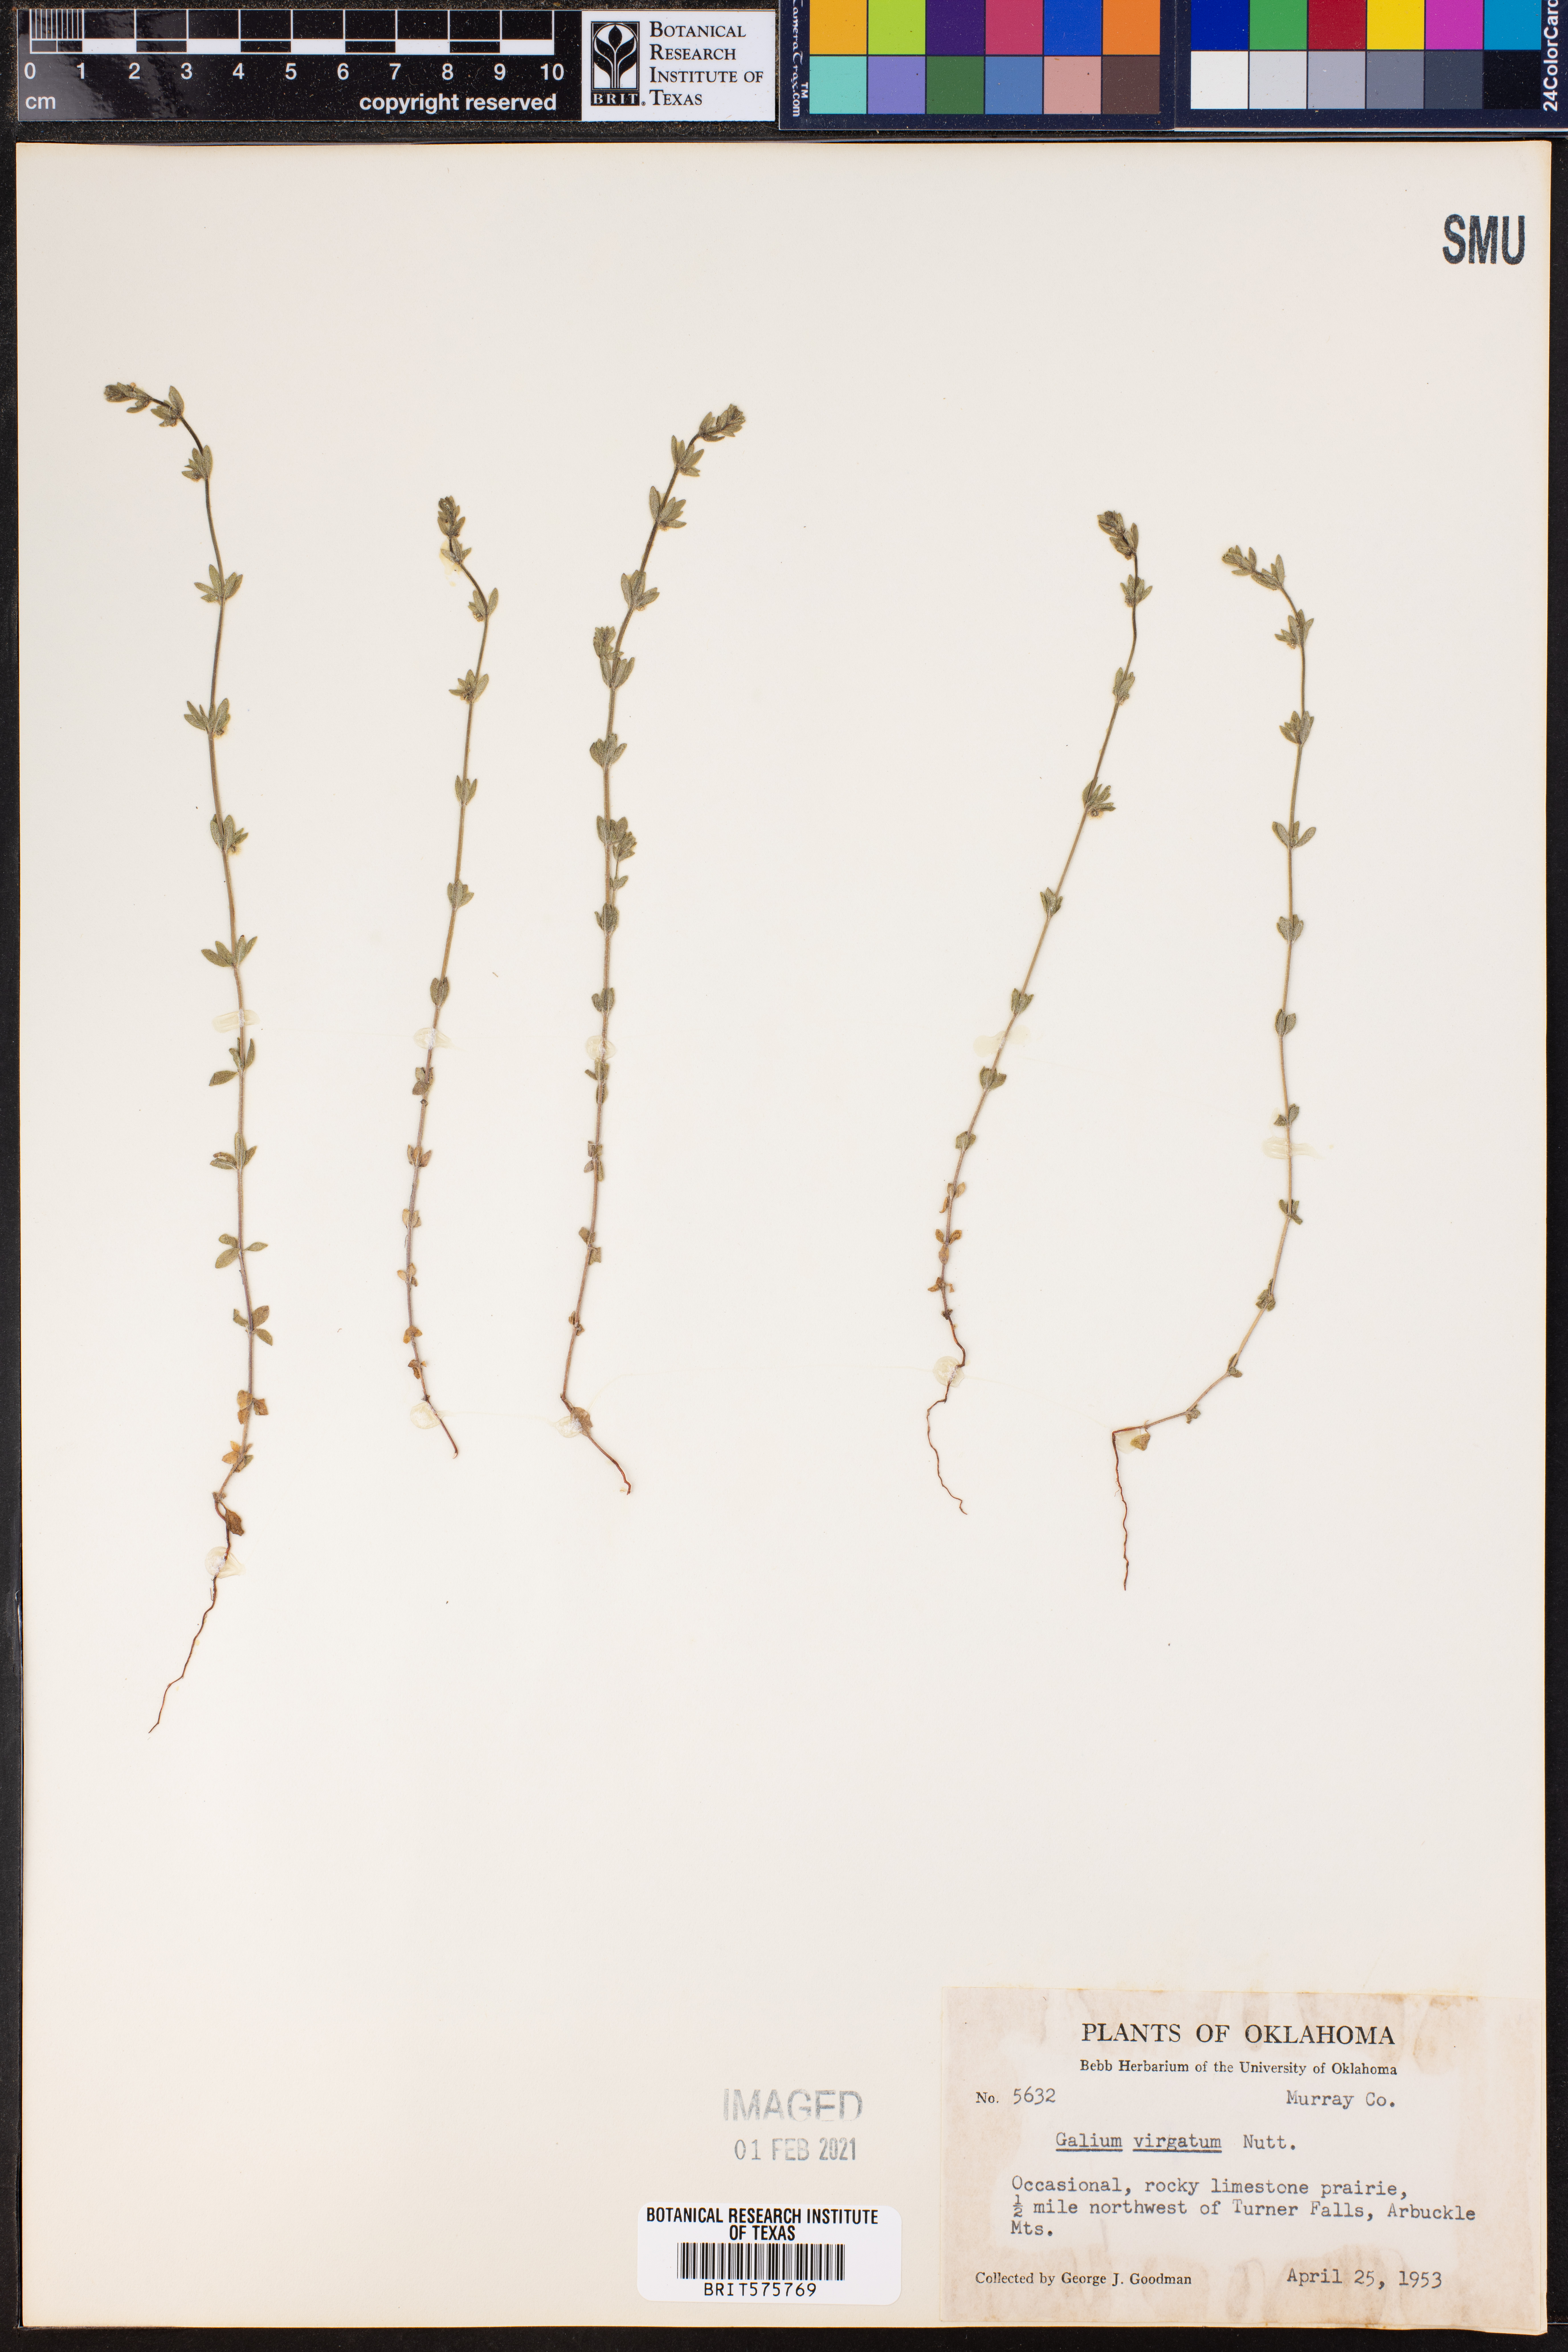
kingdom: Plantae
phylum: Tracheophyta
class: Magnoliopsida
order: Gentianales
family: Rubiaceae
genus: Galium
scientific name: Galium virgatum
